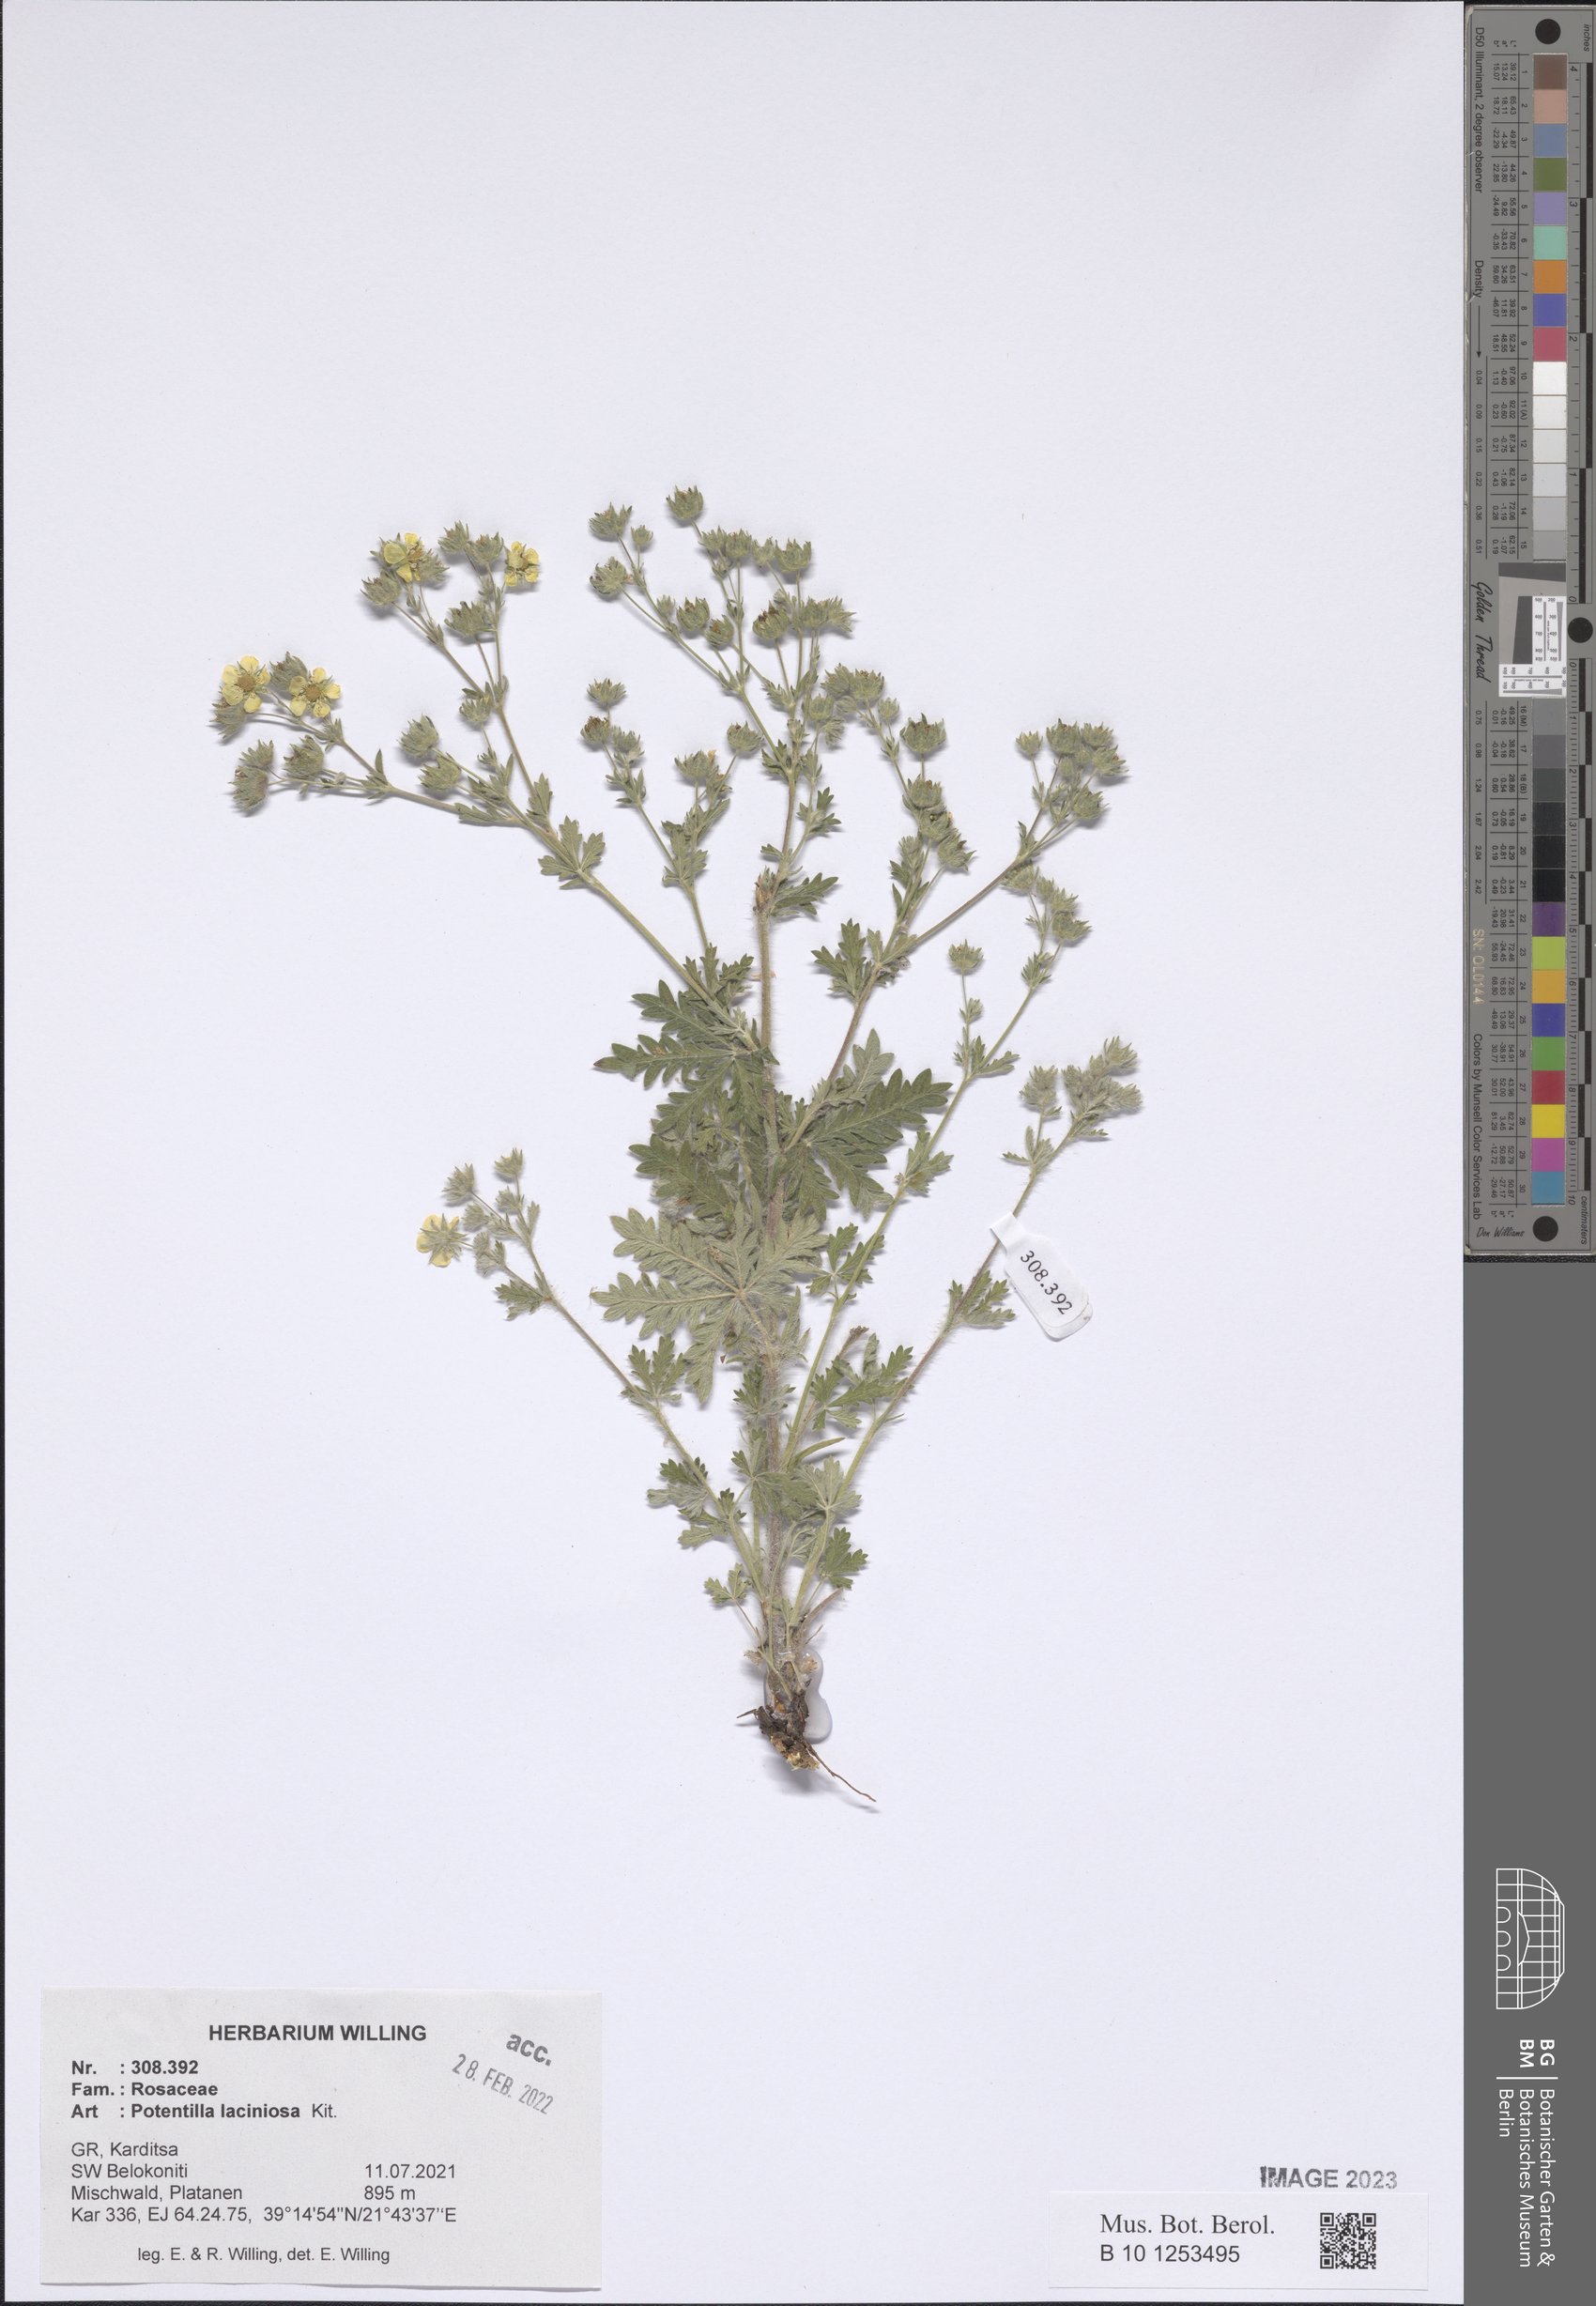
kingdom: Plantae
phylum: Tracheophyta
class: Magnoliopsida
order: Rosales
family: Rosaceae
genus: Potentilla
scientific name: Potentilla recta
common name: Sulphur cinquefoil
